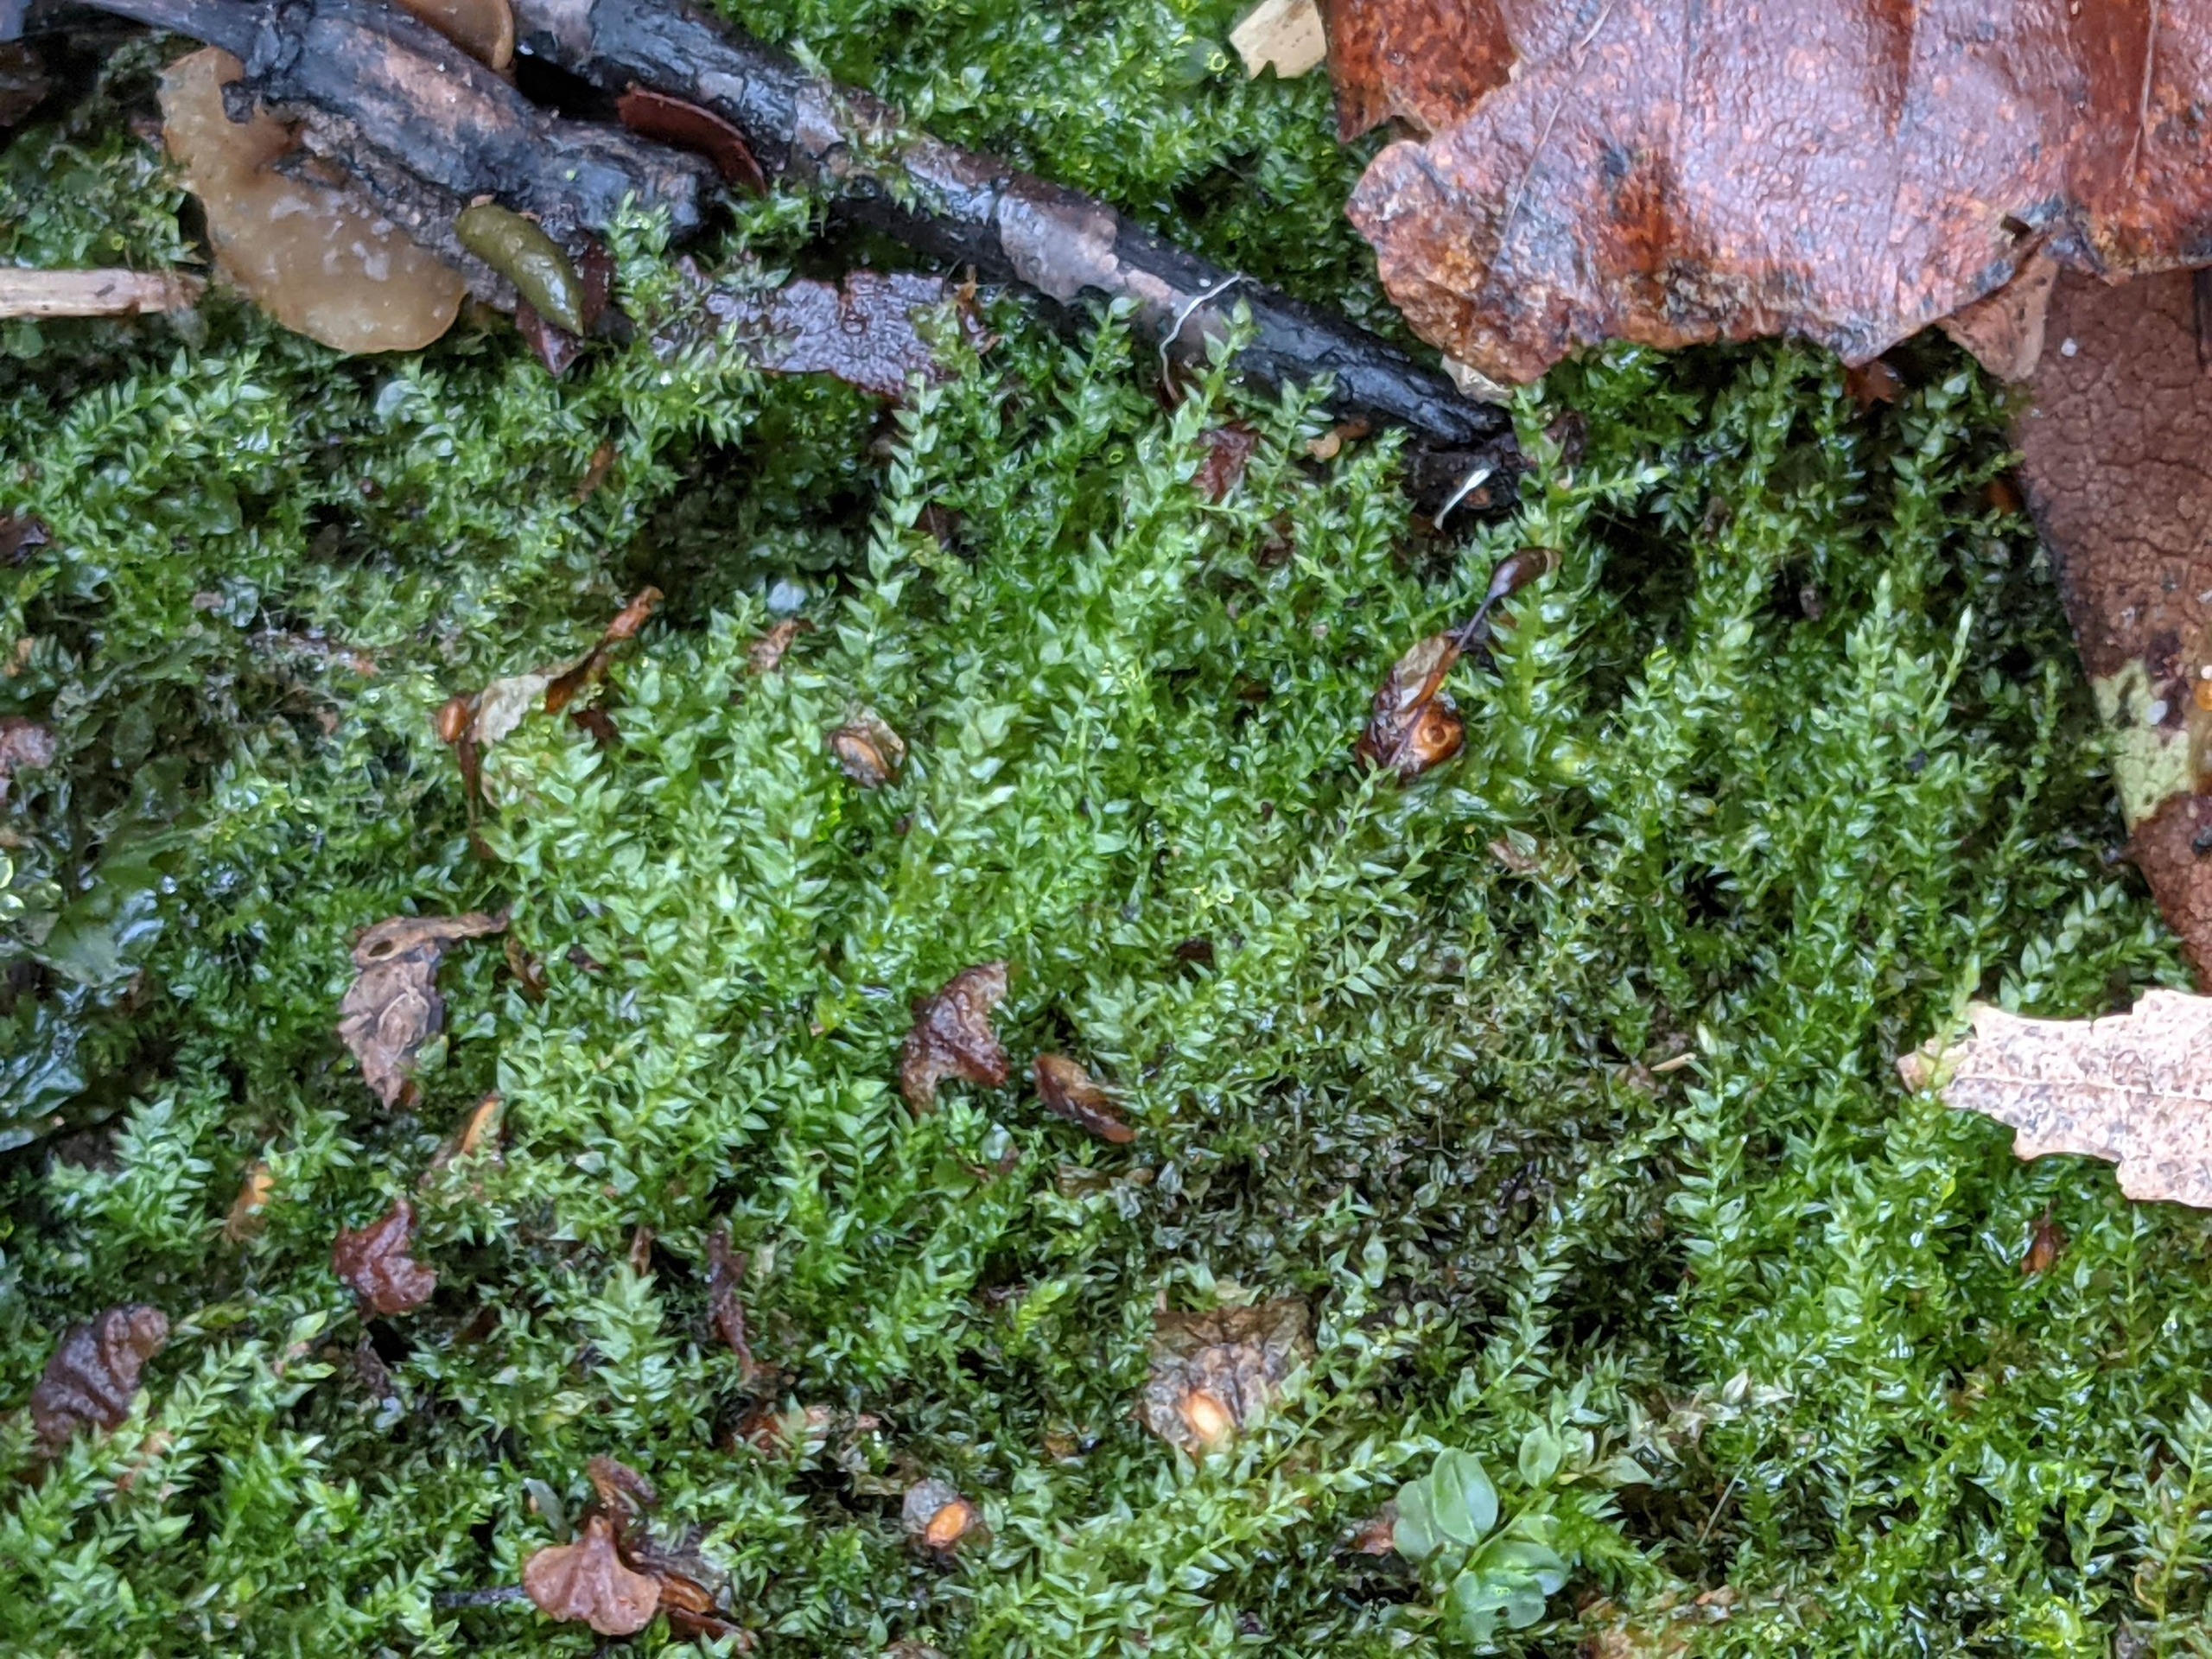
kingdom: Plantae
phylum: Bryophyta
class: Bryopsida
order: Hypnales
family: Brachytheciaceae
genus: Oxyrrhynchium
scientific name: Oxyrrhynchium hians
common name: Ler-vortetand
